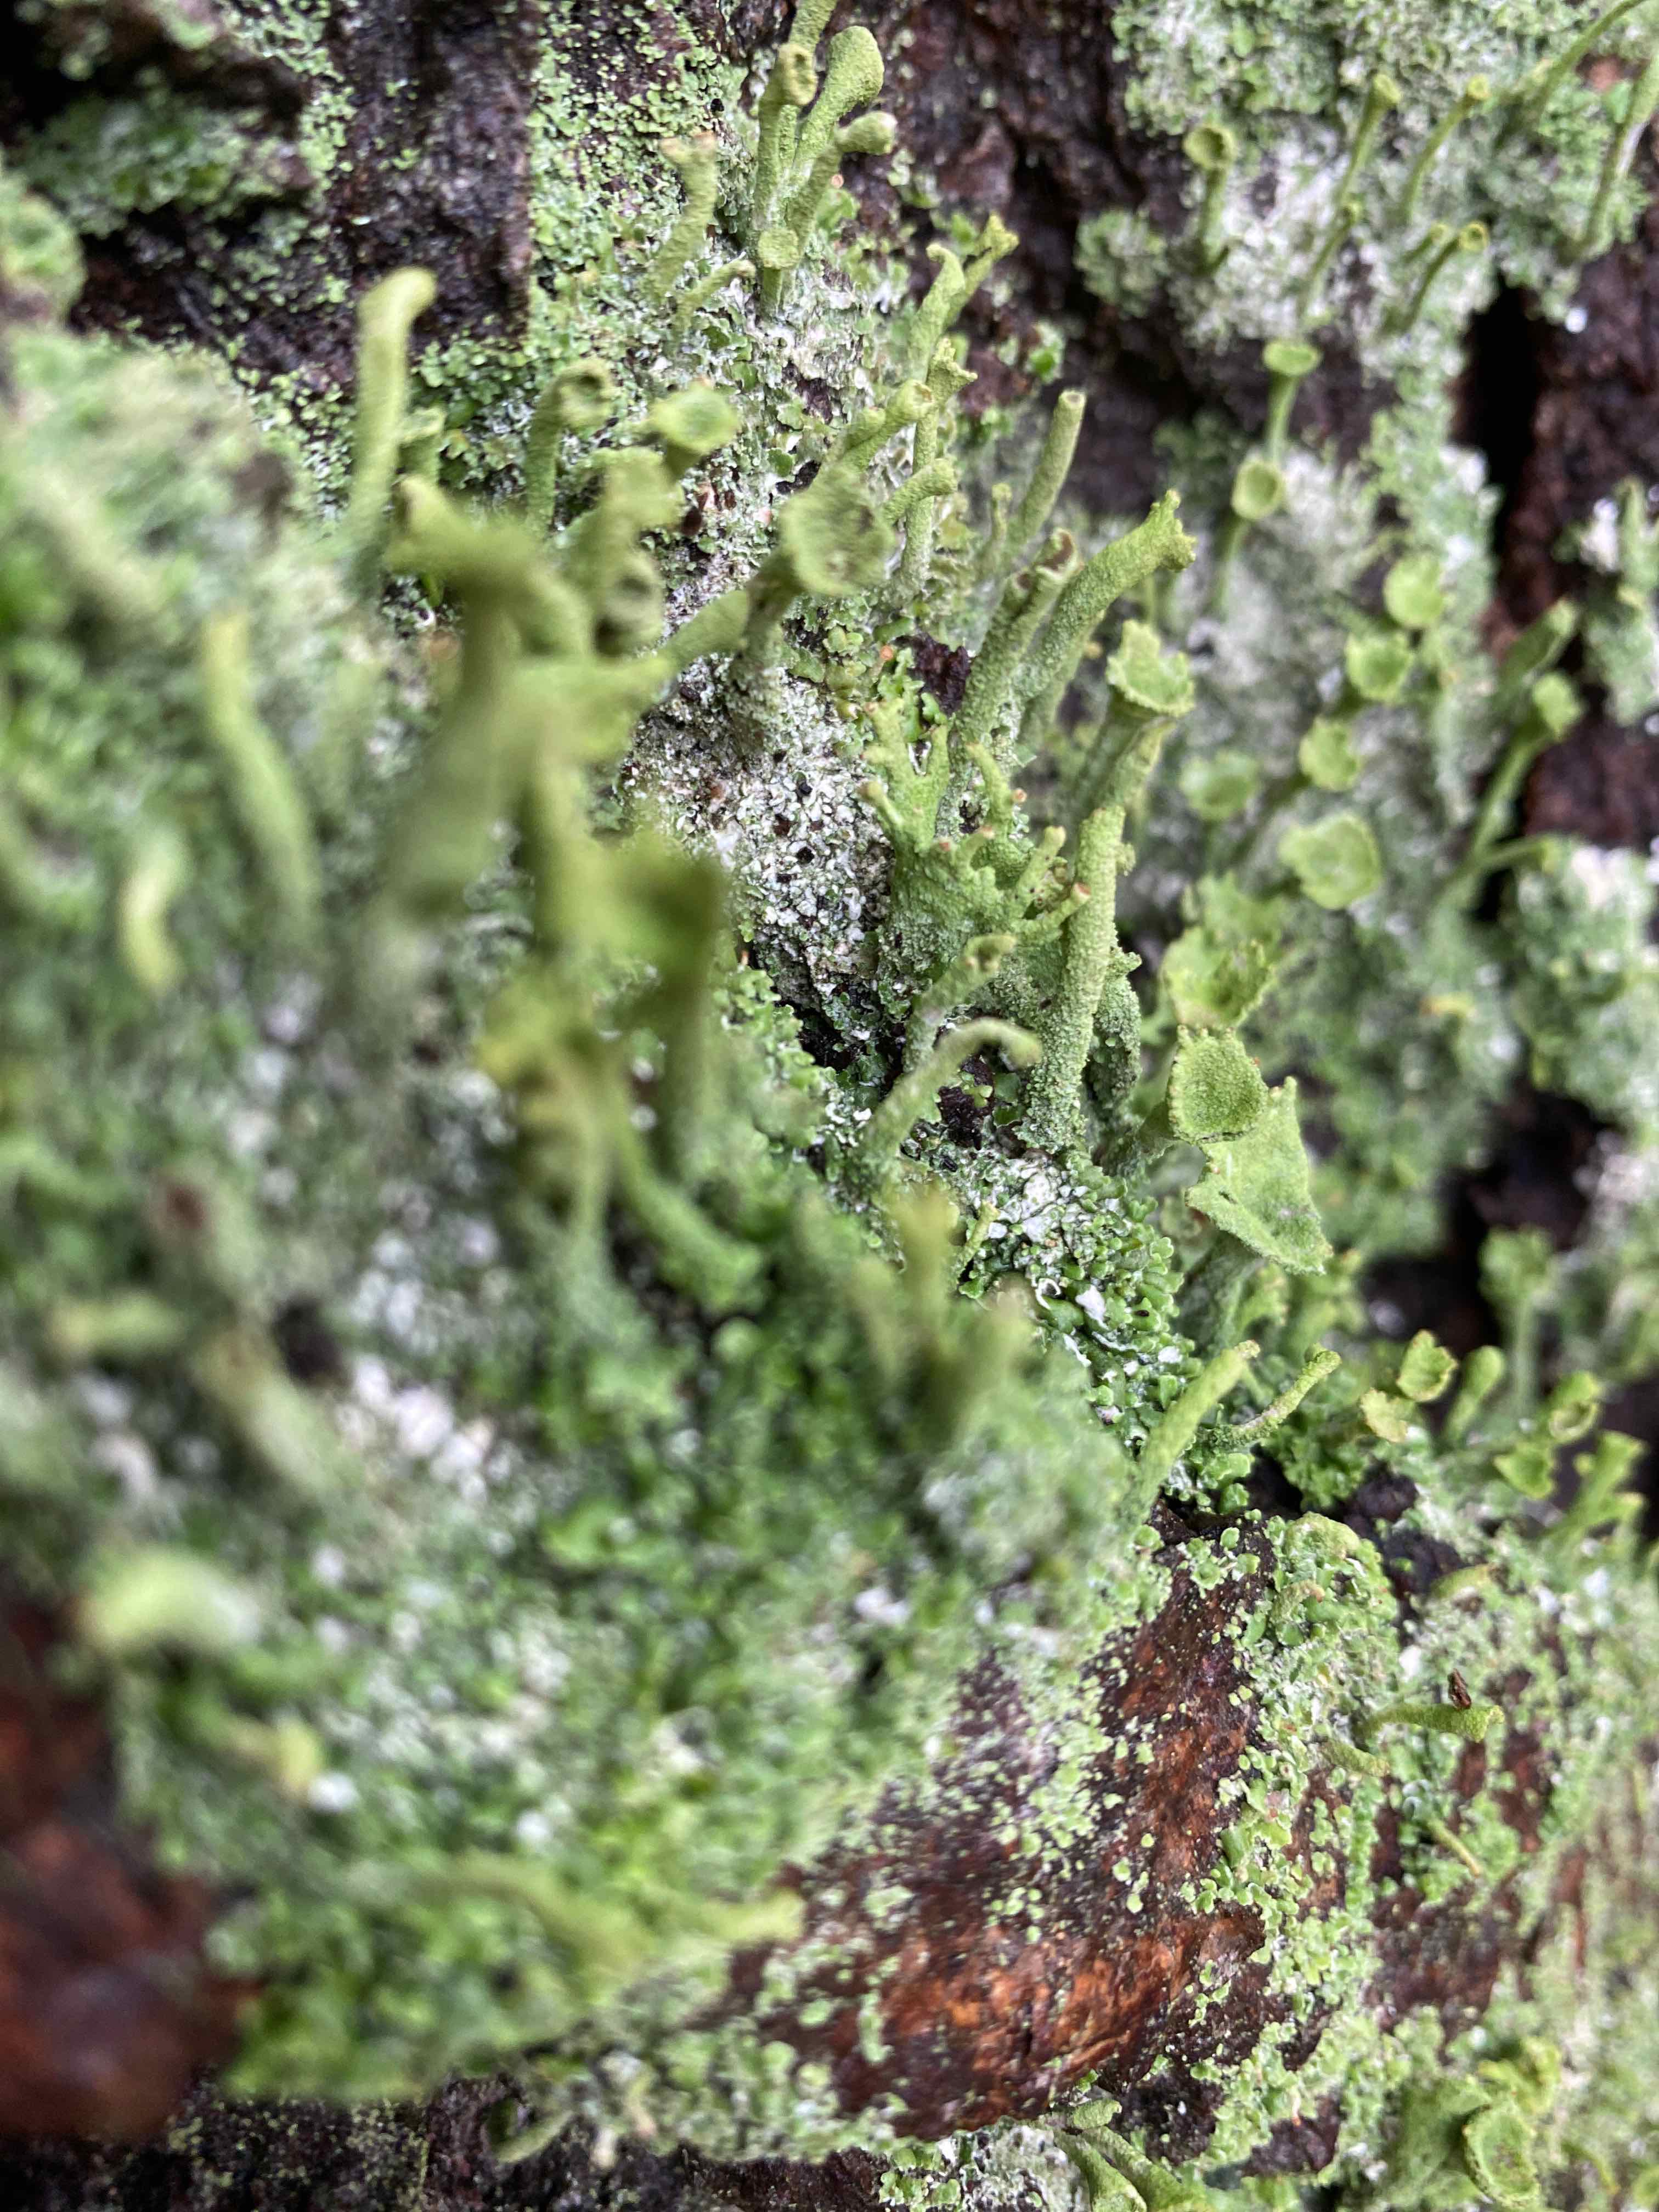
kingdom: Fungi
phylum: Ascomycota
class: Lecanoromycetes
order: Lecanorales
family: Cladoniaceae
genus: Cladonia
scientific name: Cladonia chlorophaea
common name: Mealy pixie cup
